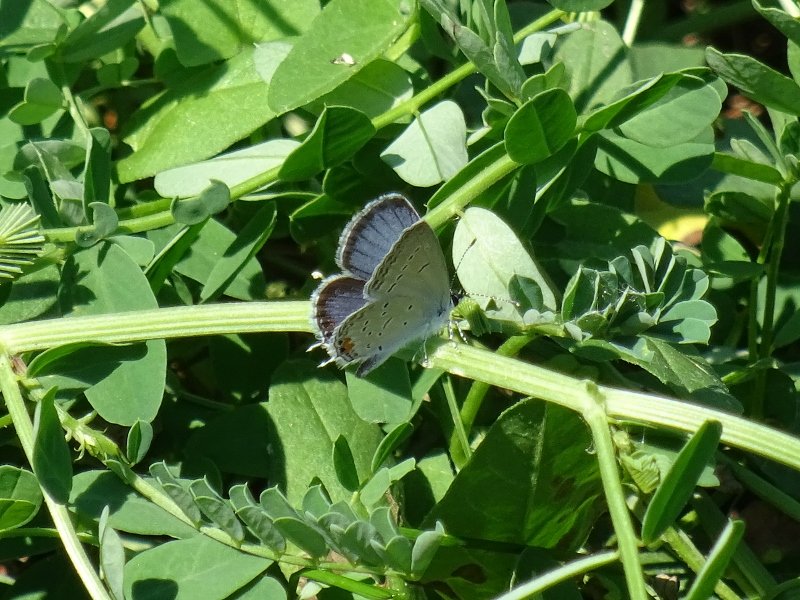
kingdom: Animalia
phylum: Arthropoda
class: Insecta
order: Lepidoptera
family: Lycaenidae
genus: Elkalyce
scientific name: Elkalyce comyntas
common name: Eastern Tailed-Blue
